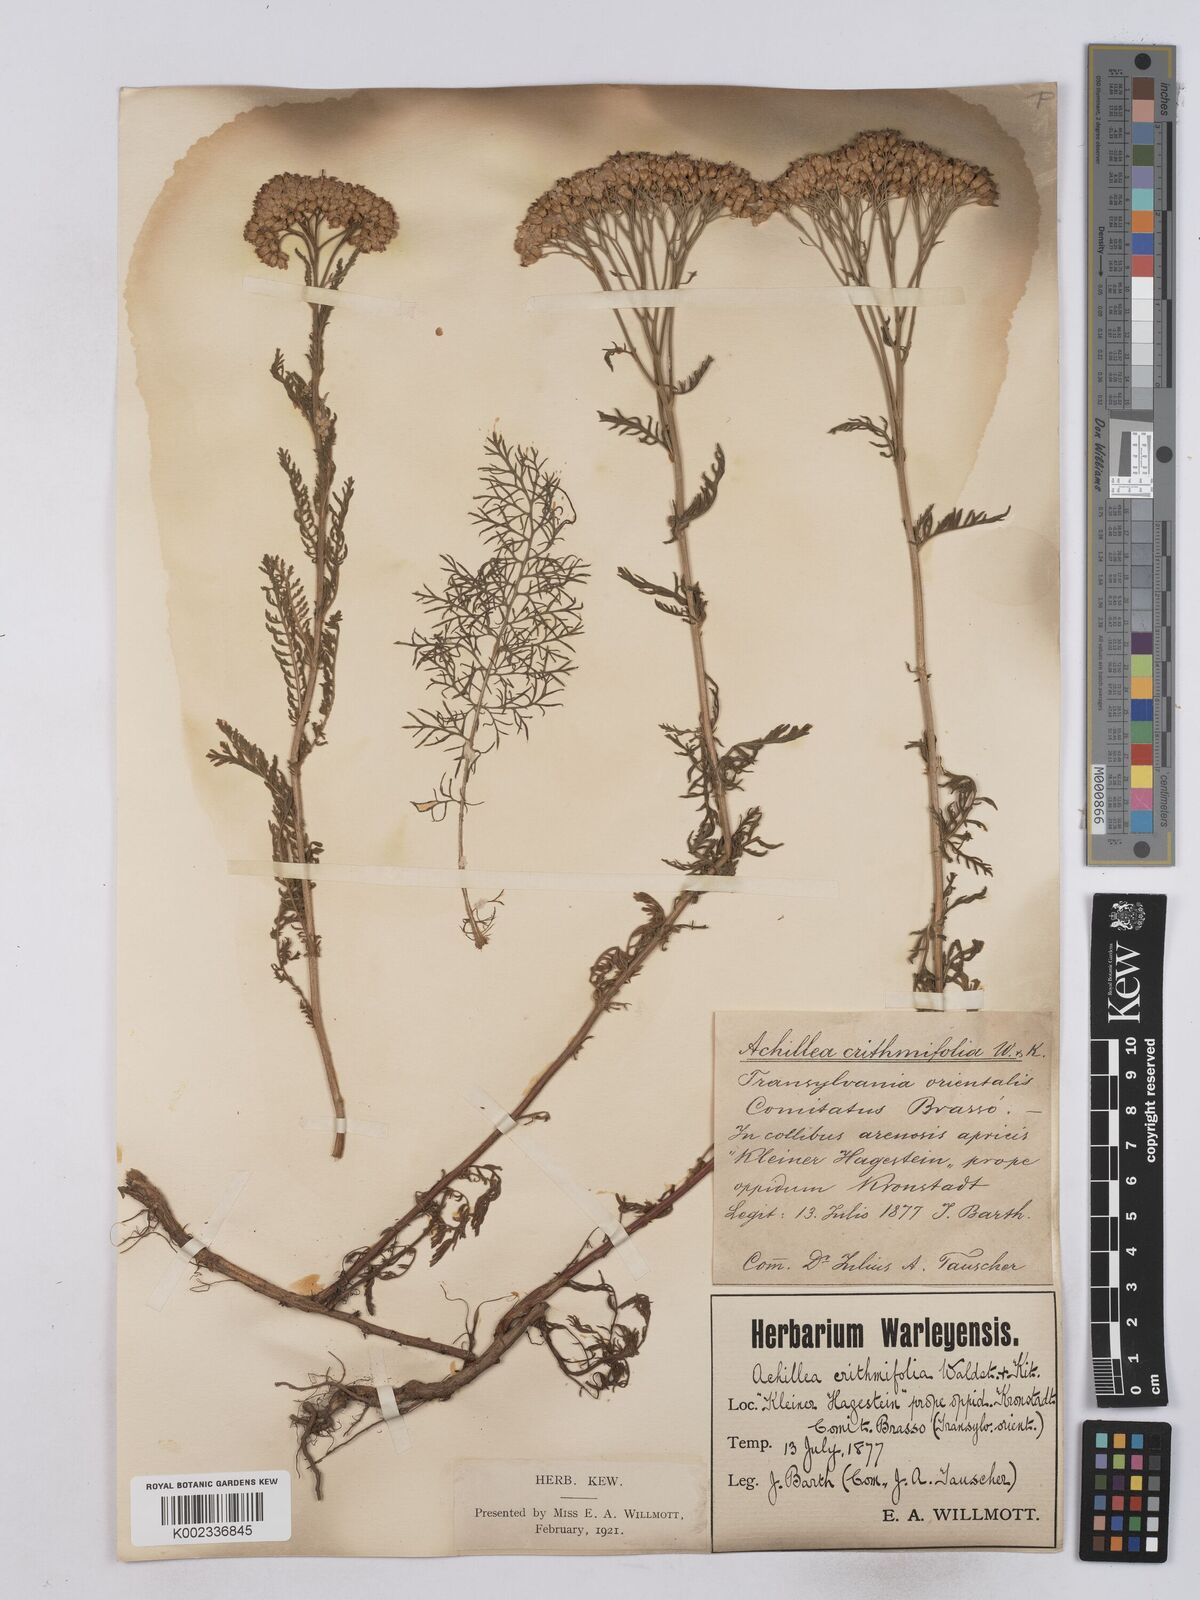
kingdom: Plantae
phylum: Tracheophyta
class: Magnoliopsida
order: Asterales
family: Asteraceae
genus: Achillea
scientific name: Achillea crithmifolia
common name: Yarrow
